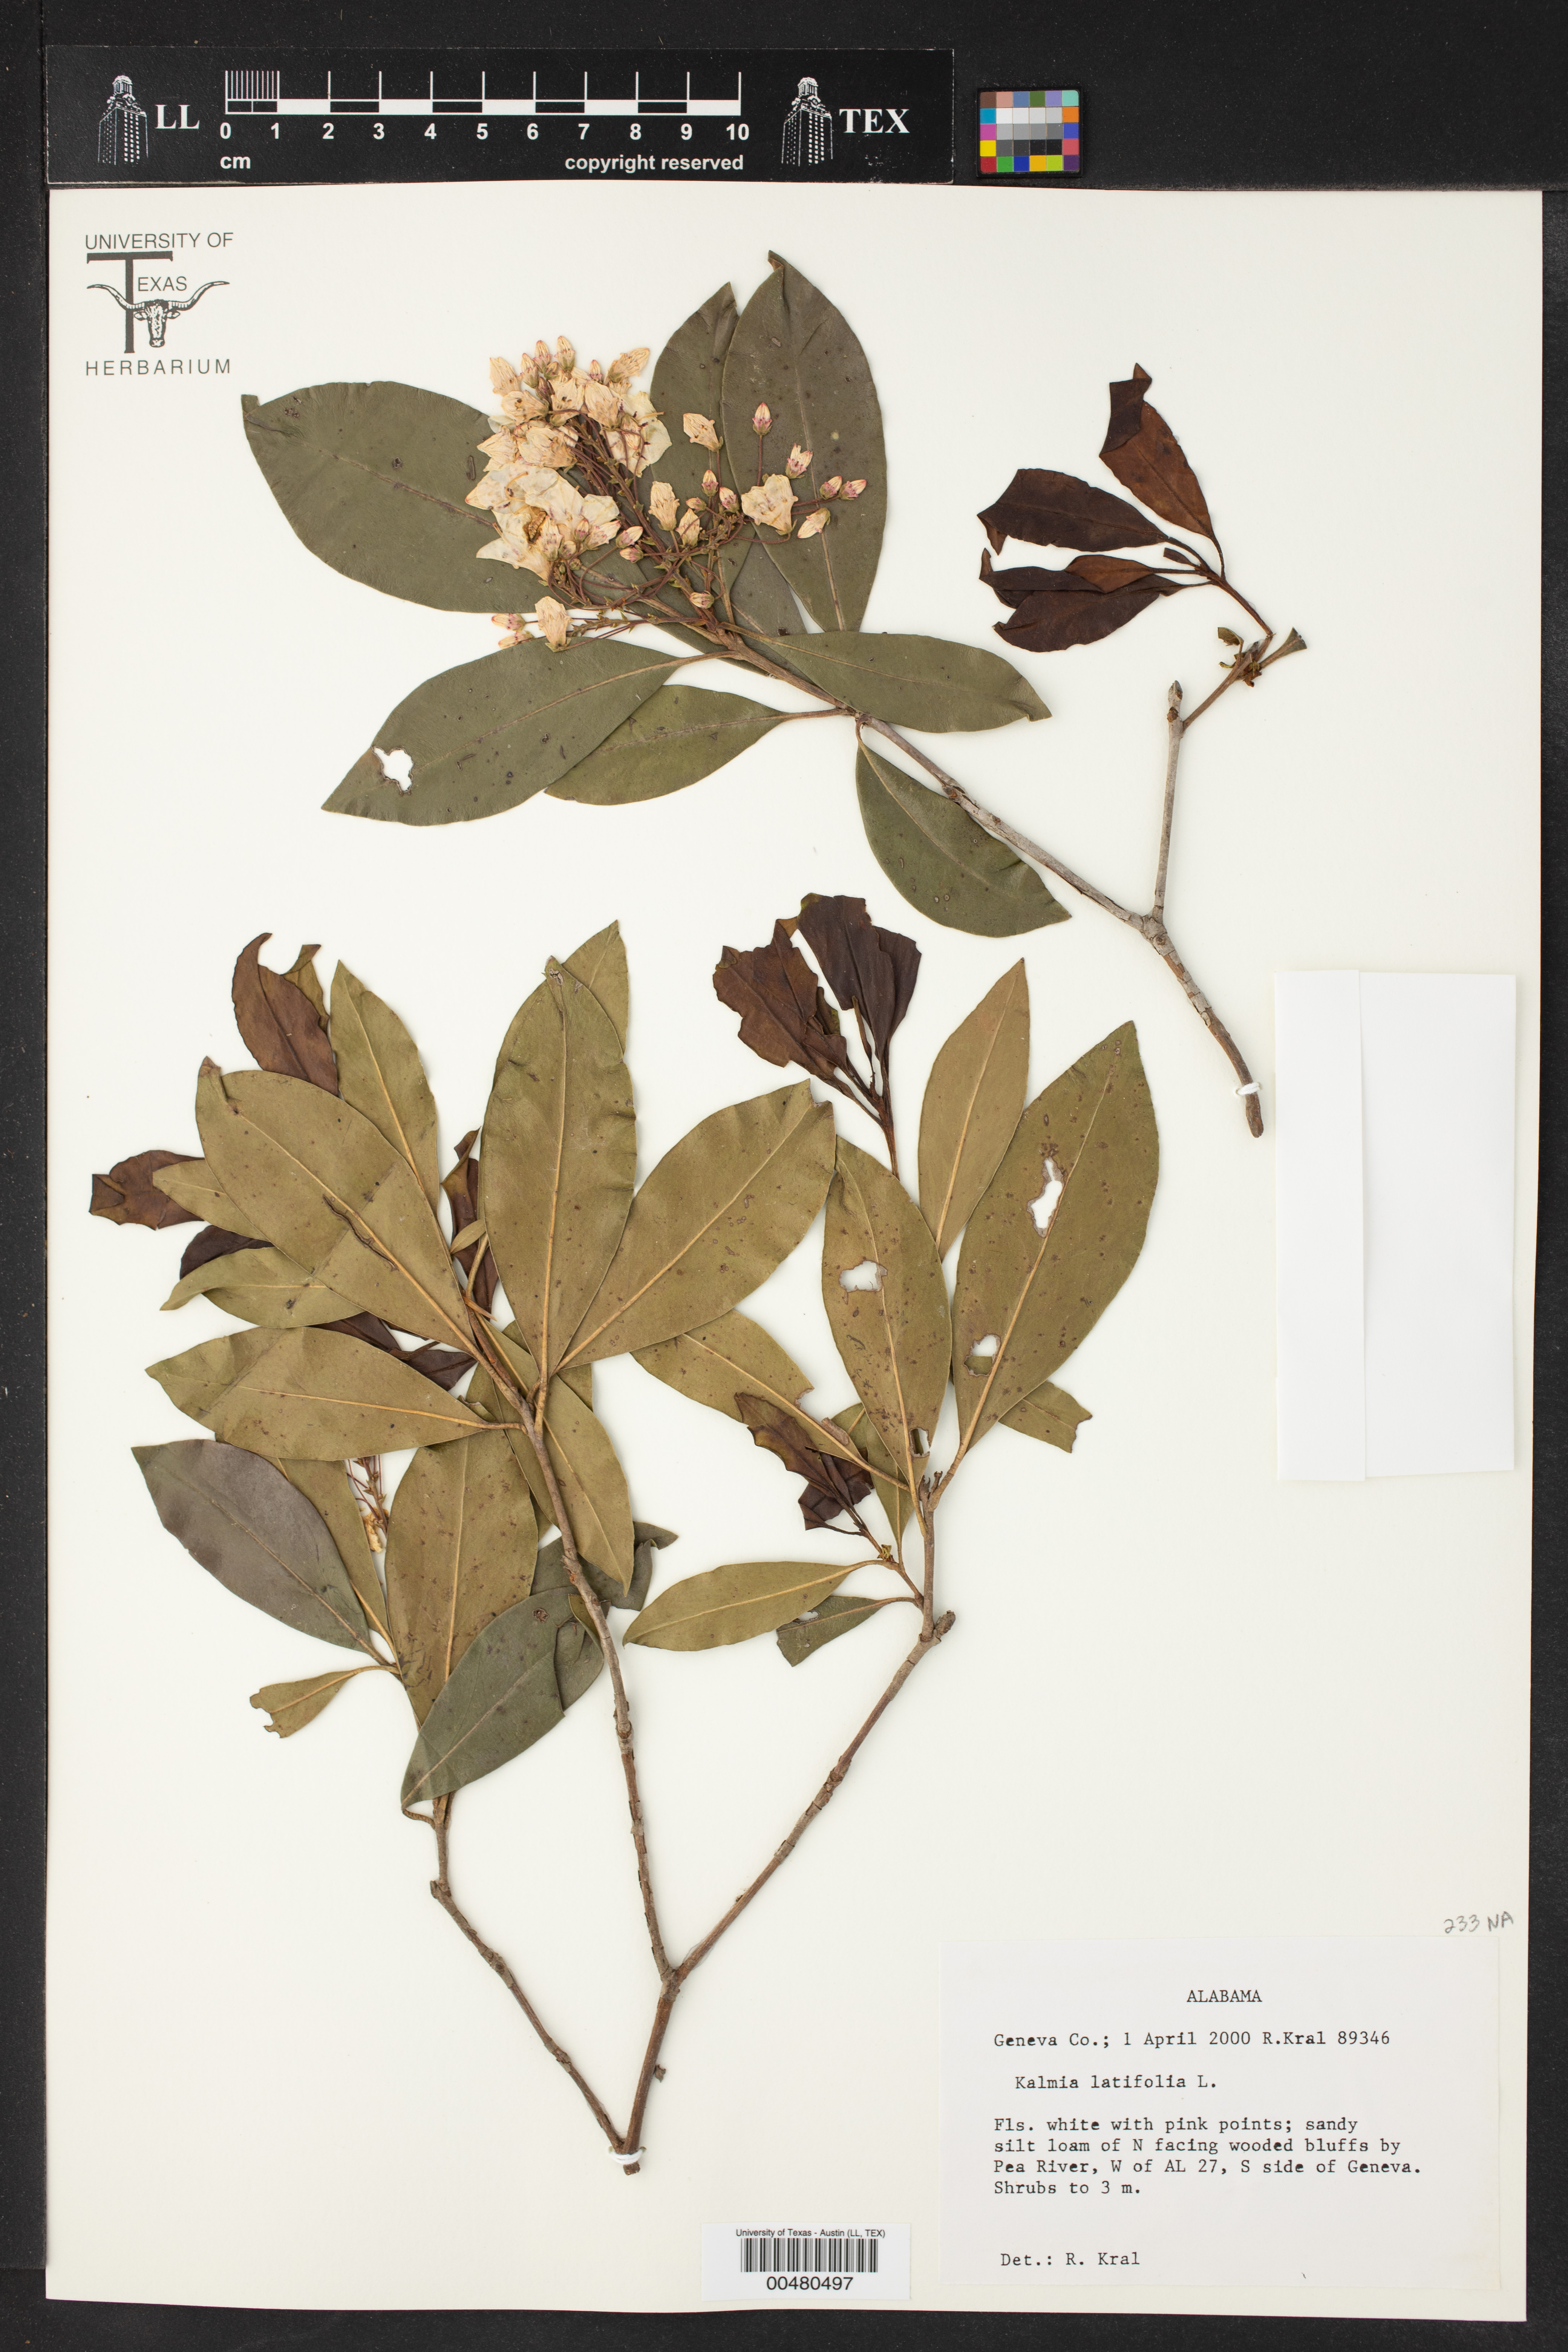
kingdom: Plantae
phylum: Tracheophyta
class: Magnoliopsida
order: Ericales
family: Ericaceae
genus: Kalmia
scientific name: Kalmia latifolia
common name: Mountain-laurel
